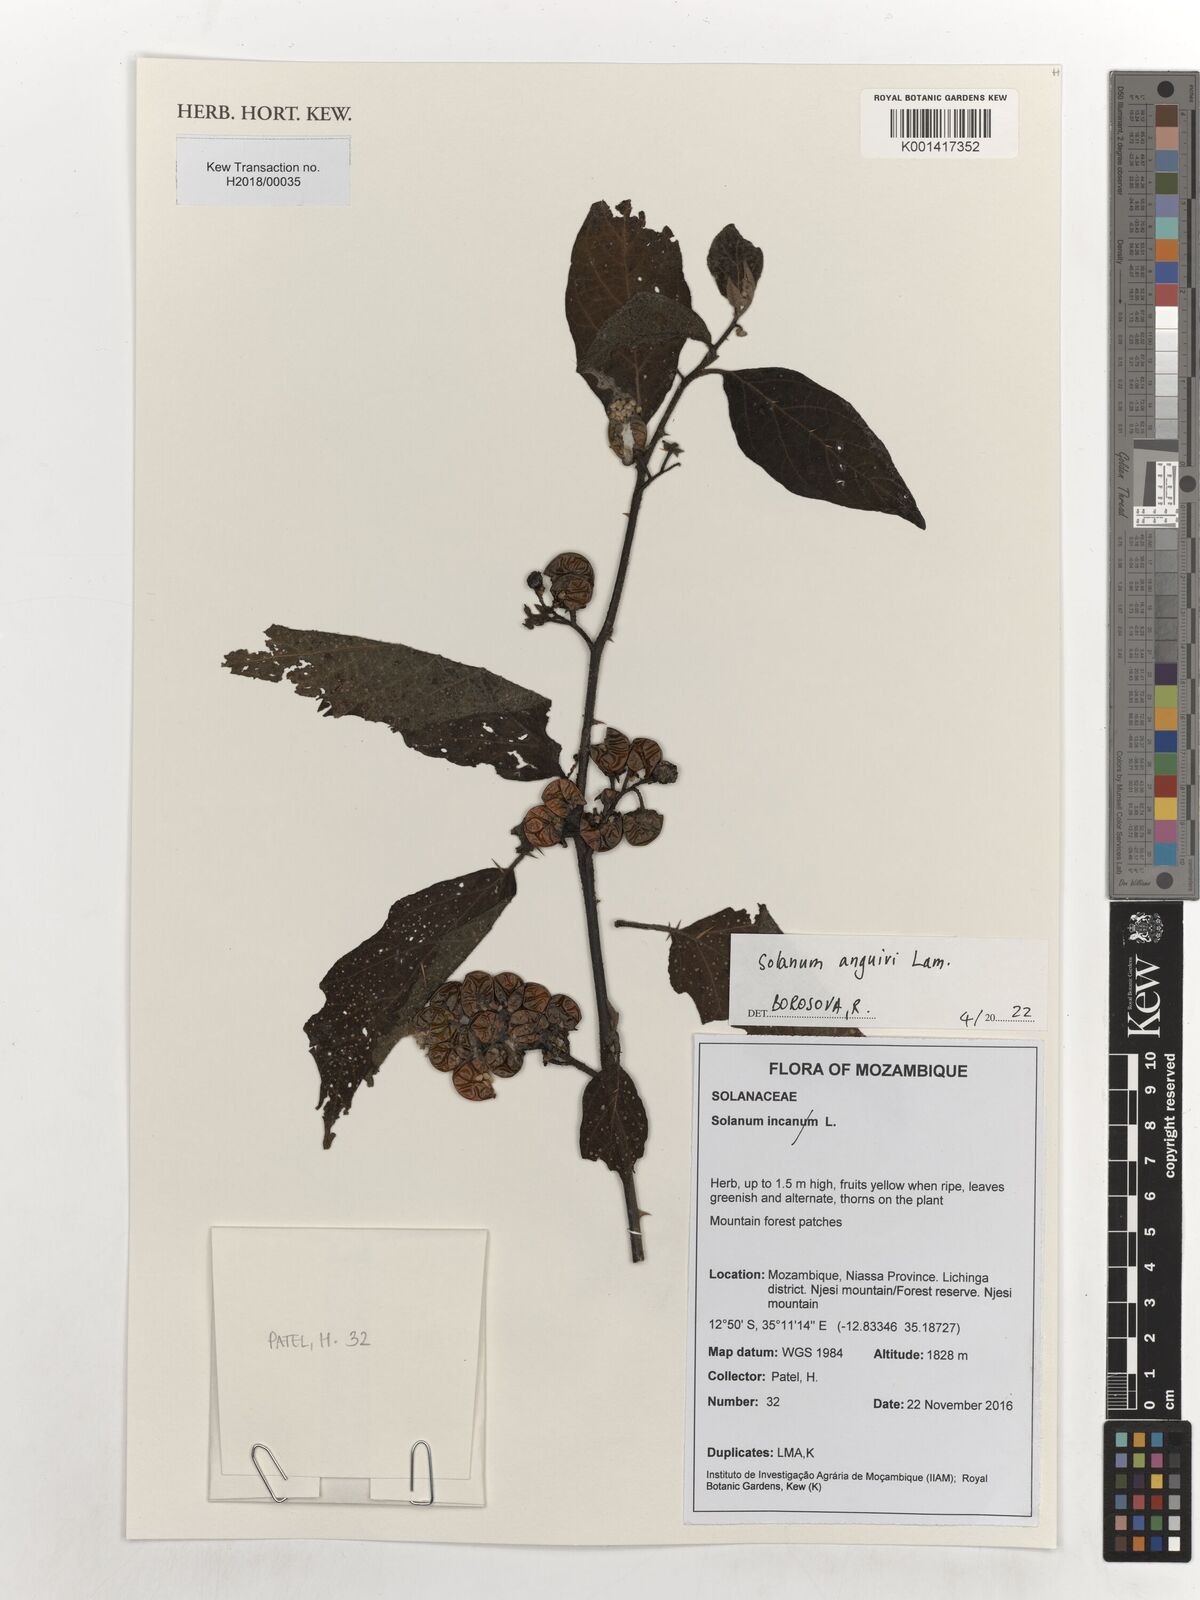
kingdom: Plantae
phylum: Tracheophyta
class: Magnoliopsida
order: Solanales
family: Solanaceae
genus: Solanum
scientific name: Solanum anguivi
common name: Forest bitterberry
